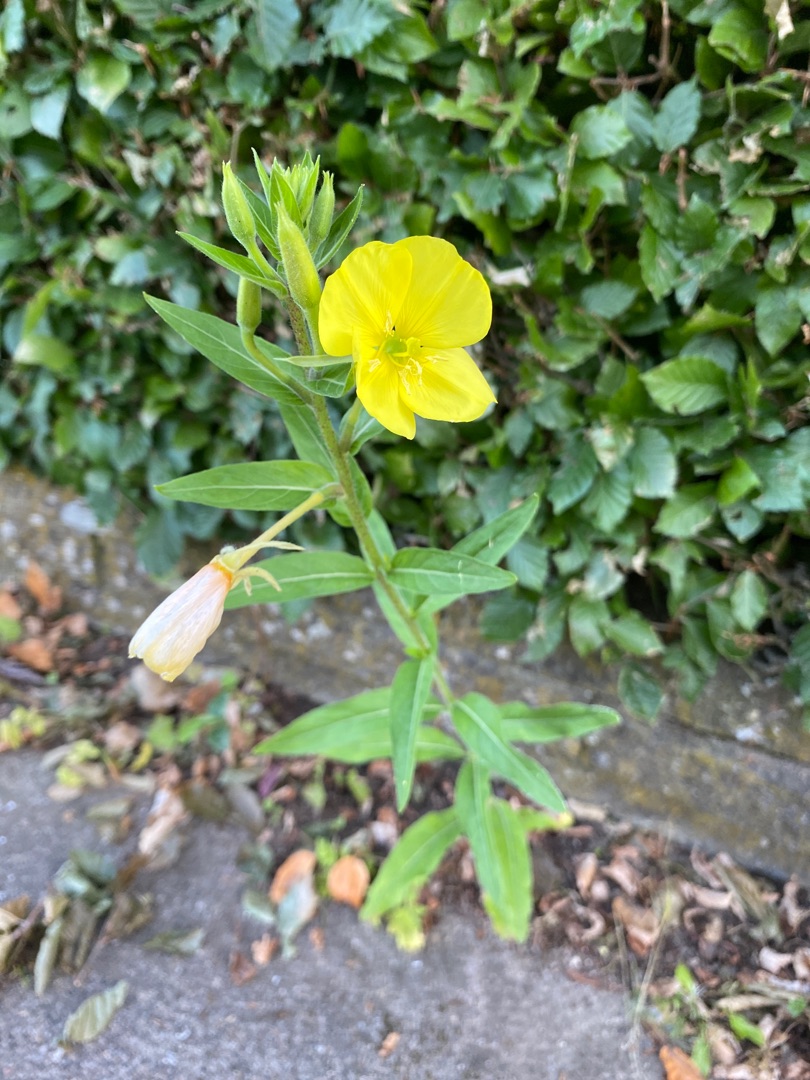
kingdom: Plantae
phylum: Tracheophyta
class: Magnoliopsida
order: Myrtales
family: Onagraceae
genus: Oenothera
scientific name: Oenothera
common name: Natlysslægten
